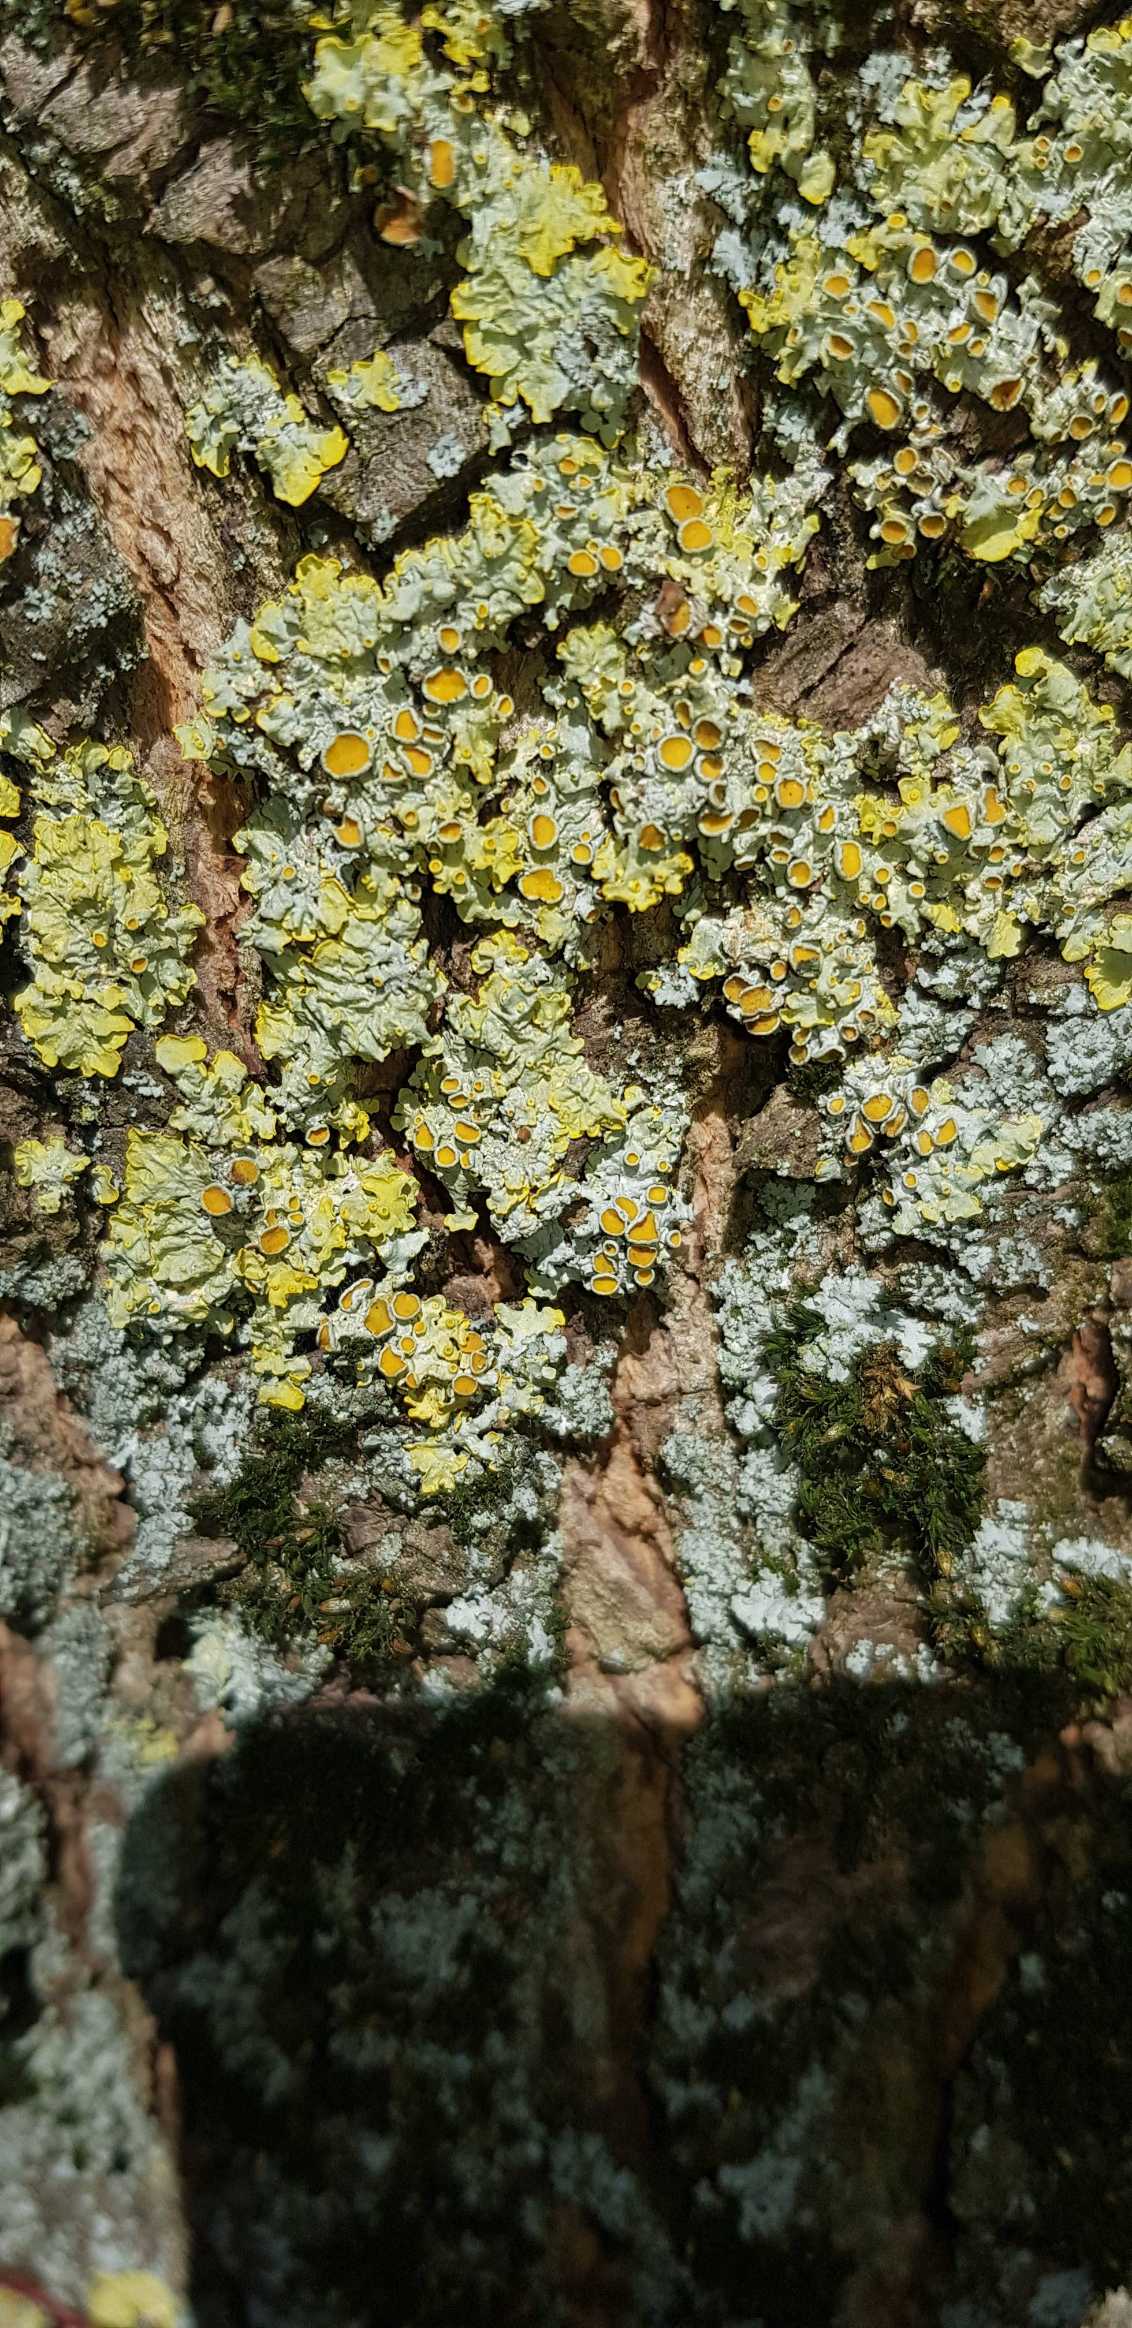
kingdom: Fungi
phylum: Ascomycota
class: Lecanoromycetes
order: Teloschistales
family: Teloschistaceae
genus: Xanthoria
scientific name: Xanthoria parietina
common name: Almindelig væggelav
